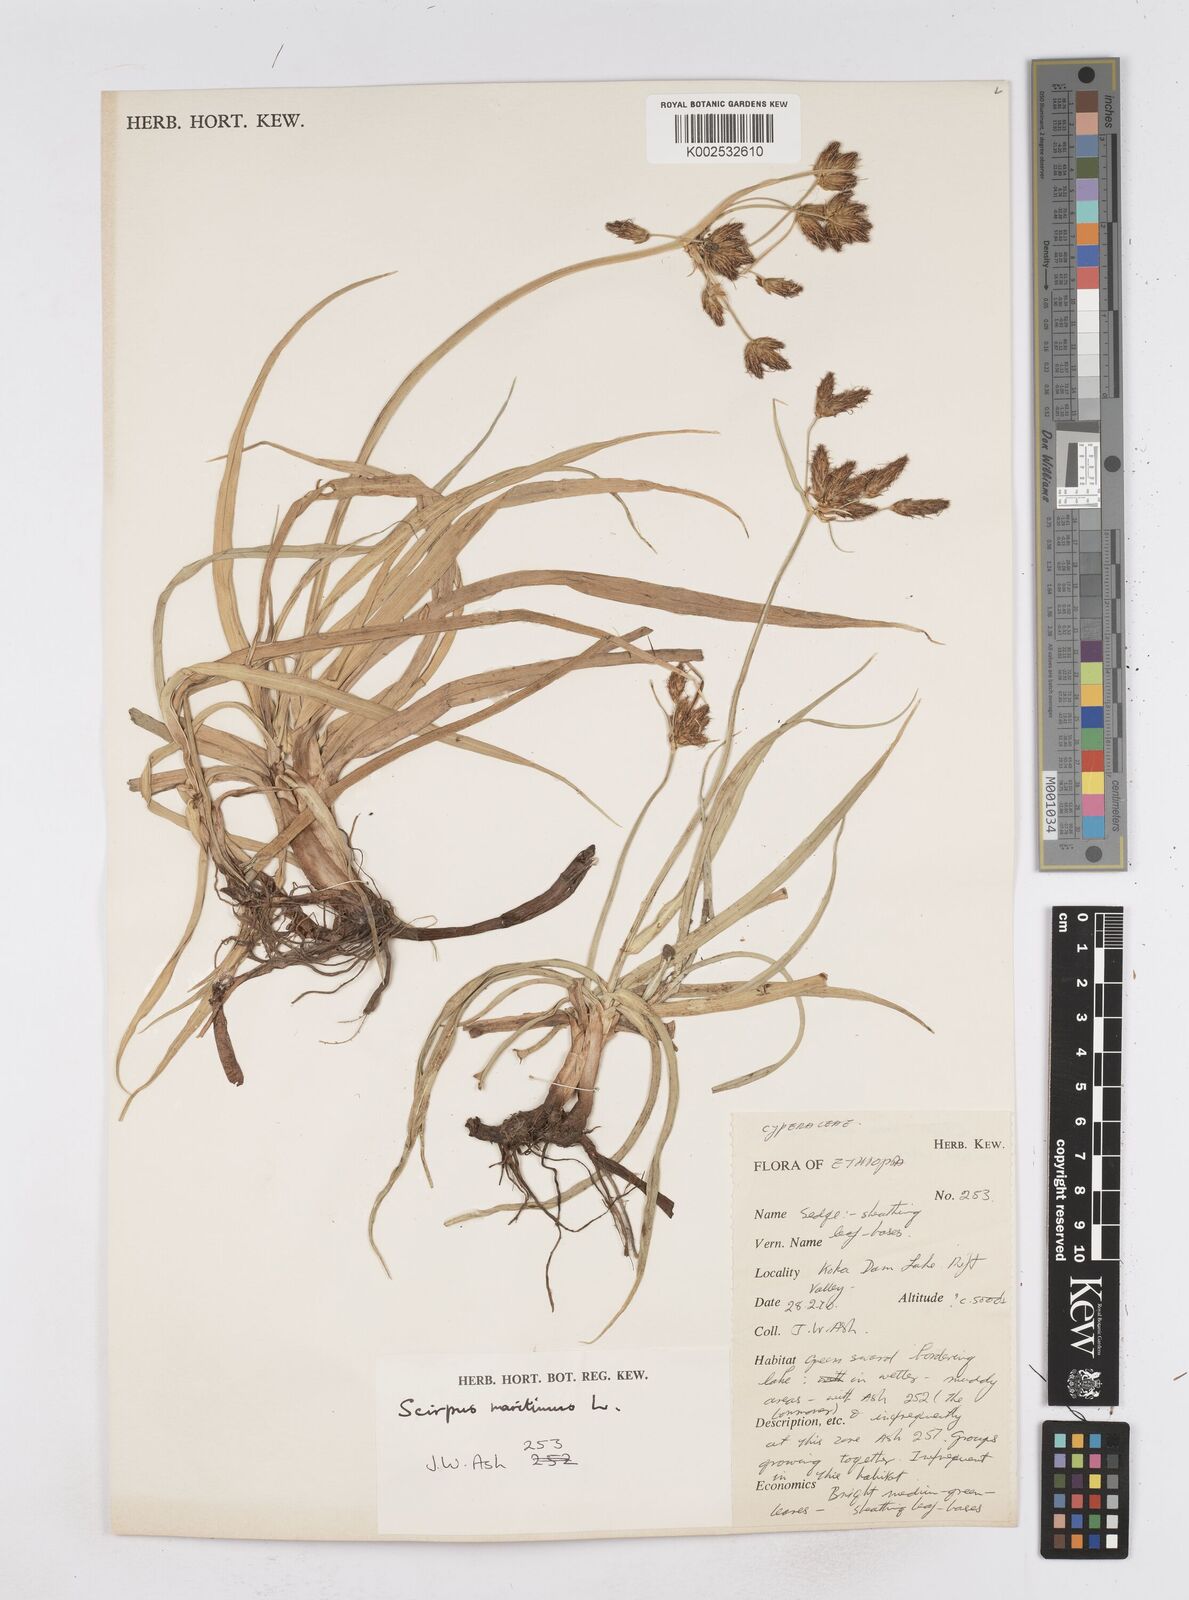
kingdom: Plantae
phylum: Tracheophyta
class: Liliopsida
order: Poales
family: Cyperaceae
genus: Bolboschoenus
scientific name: Bolboschoenus glaucus
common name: Tuberous bulrush
